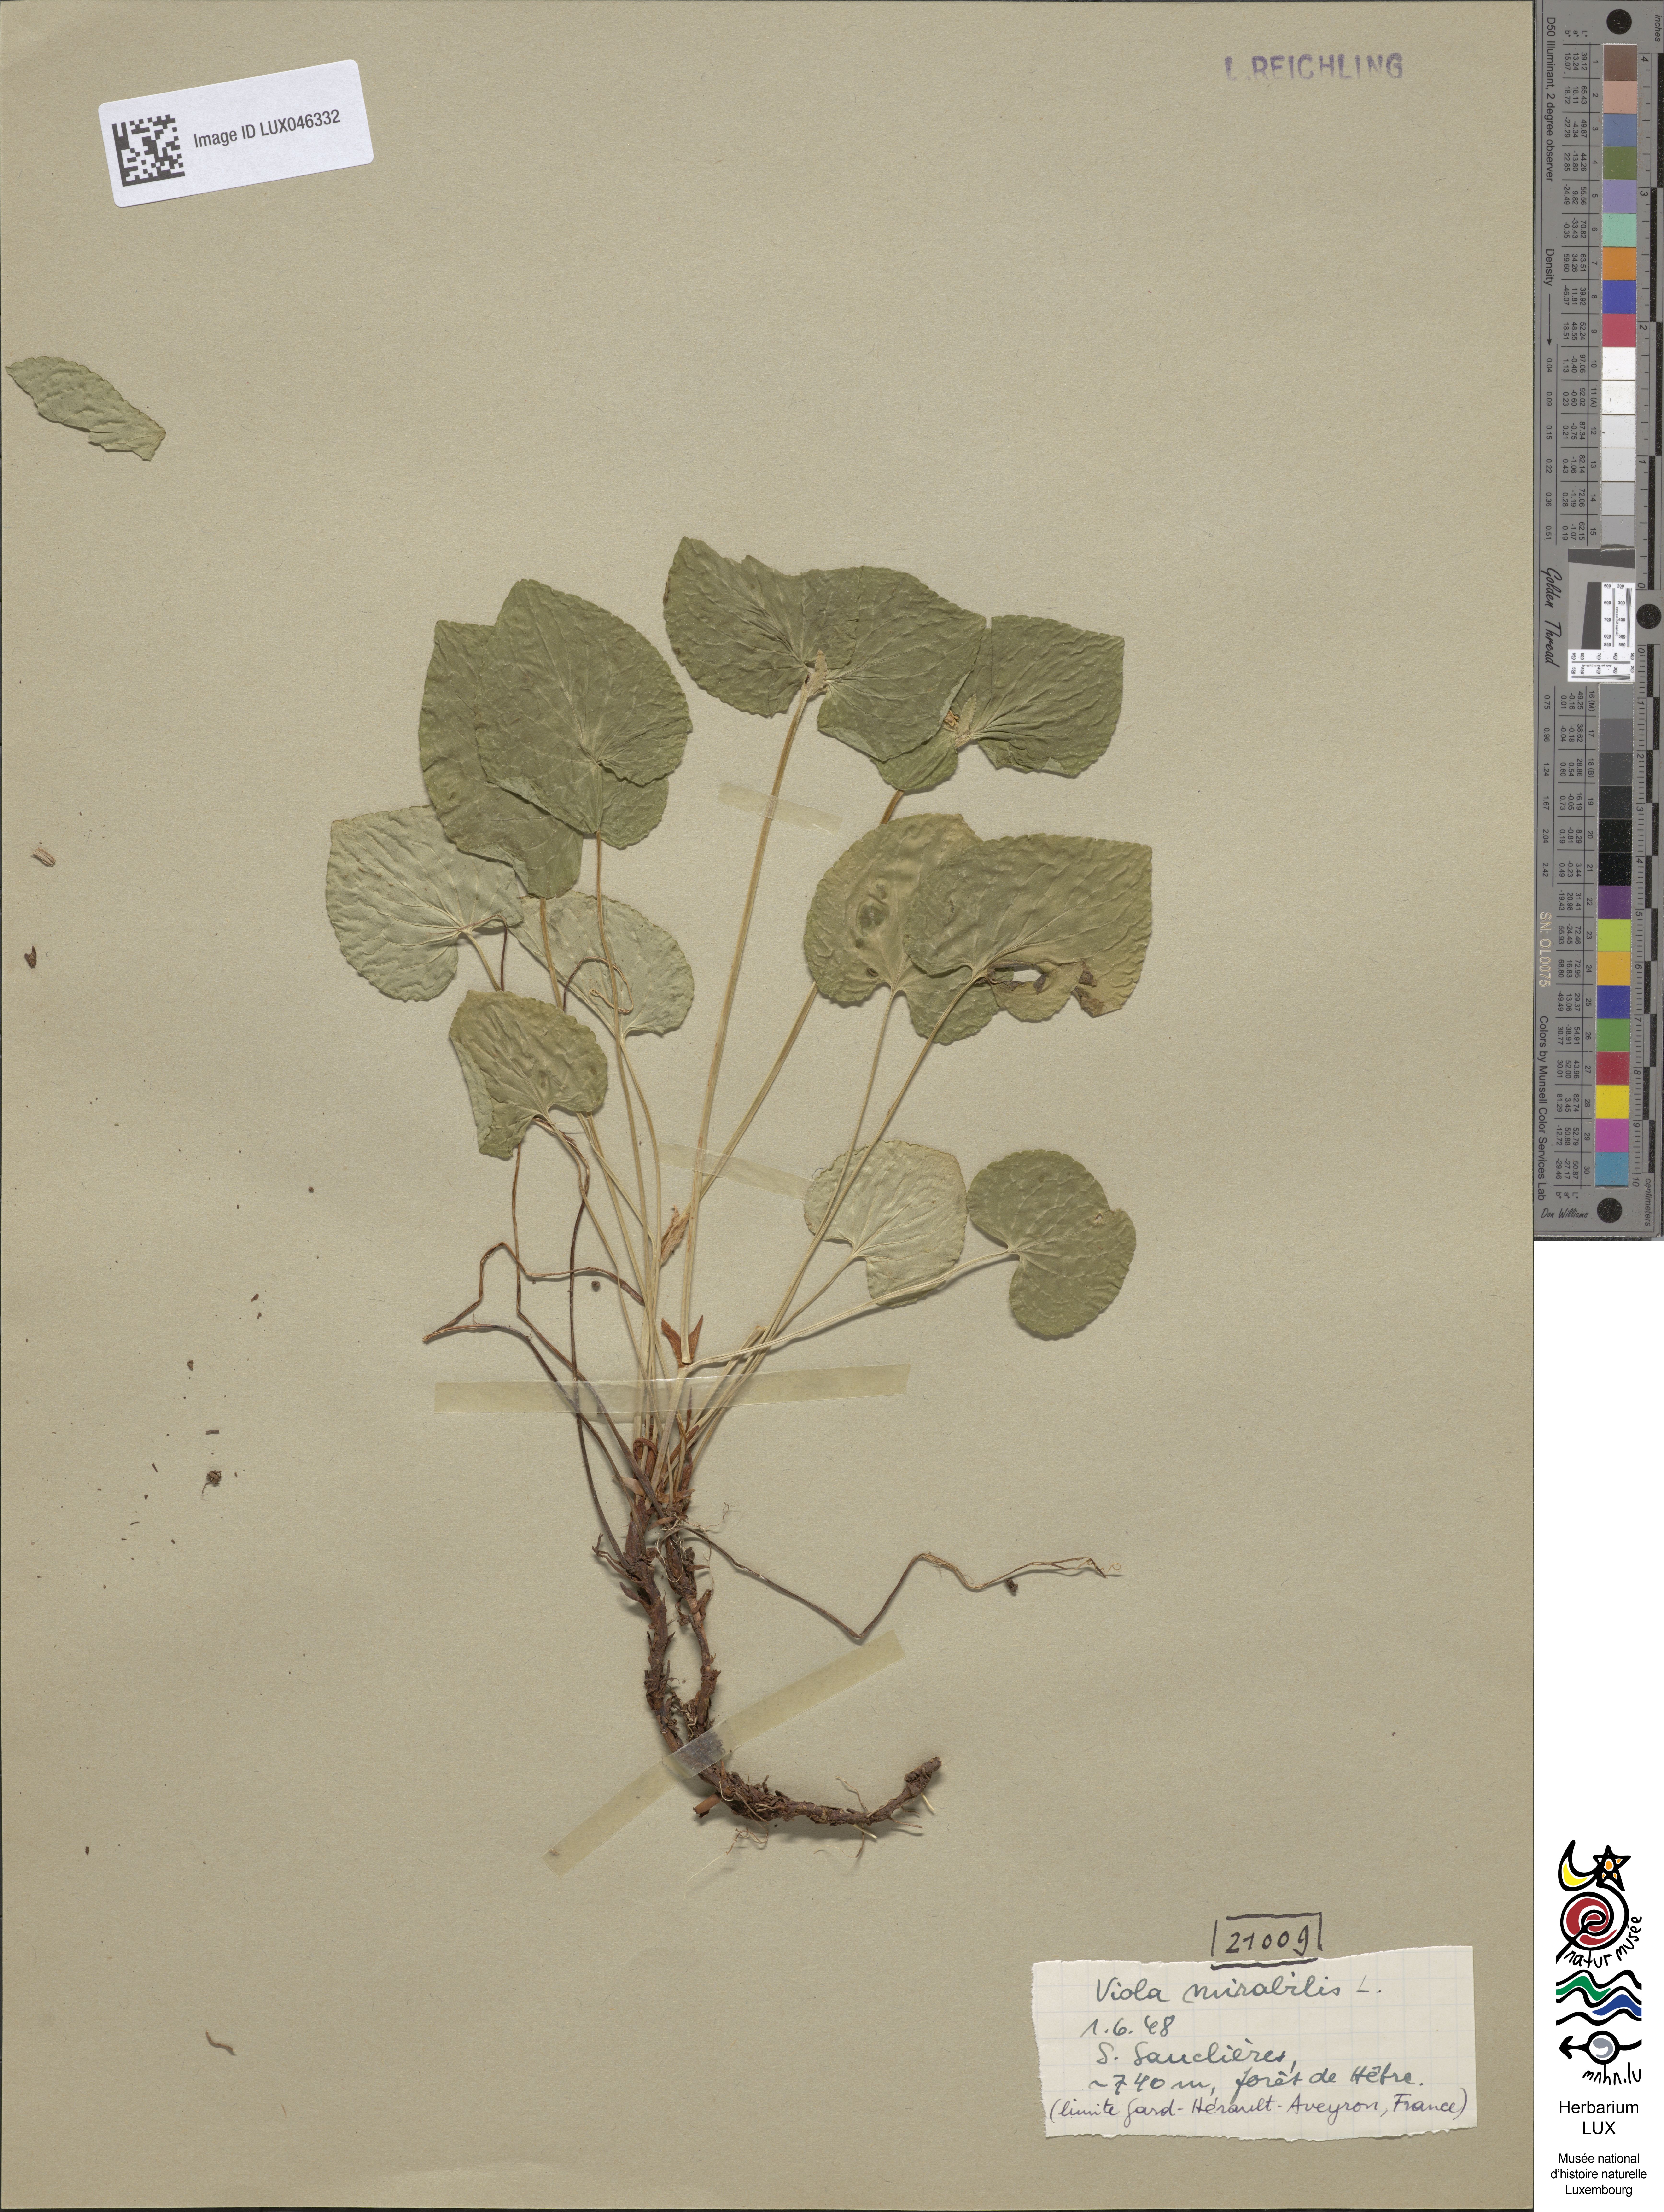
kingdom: Plantae
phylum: Tracheophyta
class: Magnoliopsida
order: Malpighiales
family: Violaceae
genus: Viola
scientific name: Viola mirabilis
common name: Wonder violet
